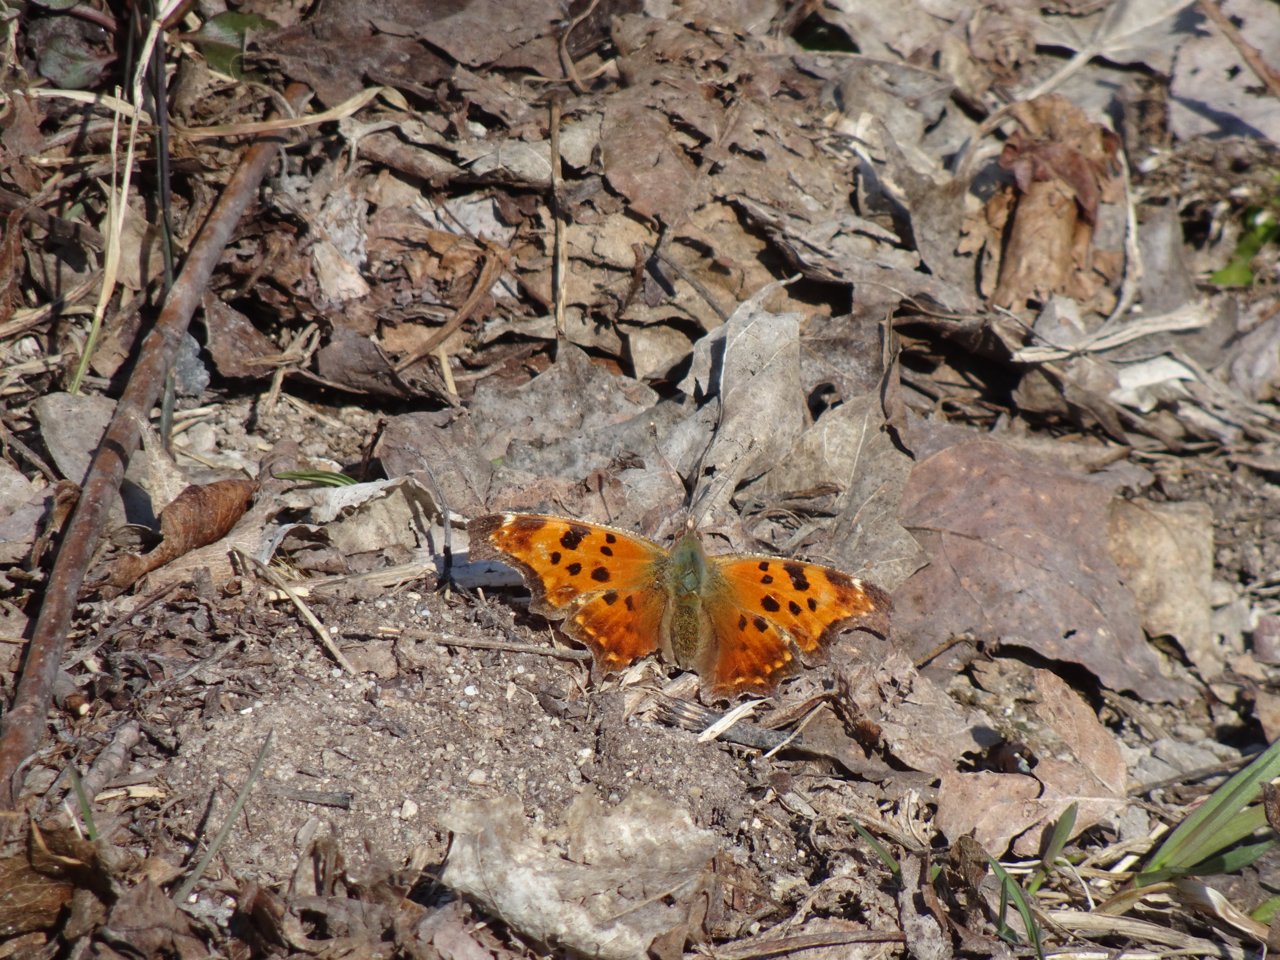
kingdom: Animalia
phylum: Arthropoda
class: Insecta
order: Lepidoptera
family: Nymphalidae
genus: Polygonia
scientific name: Polygonia comma
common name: Eastern Comma
